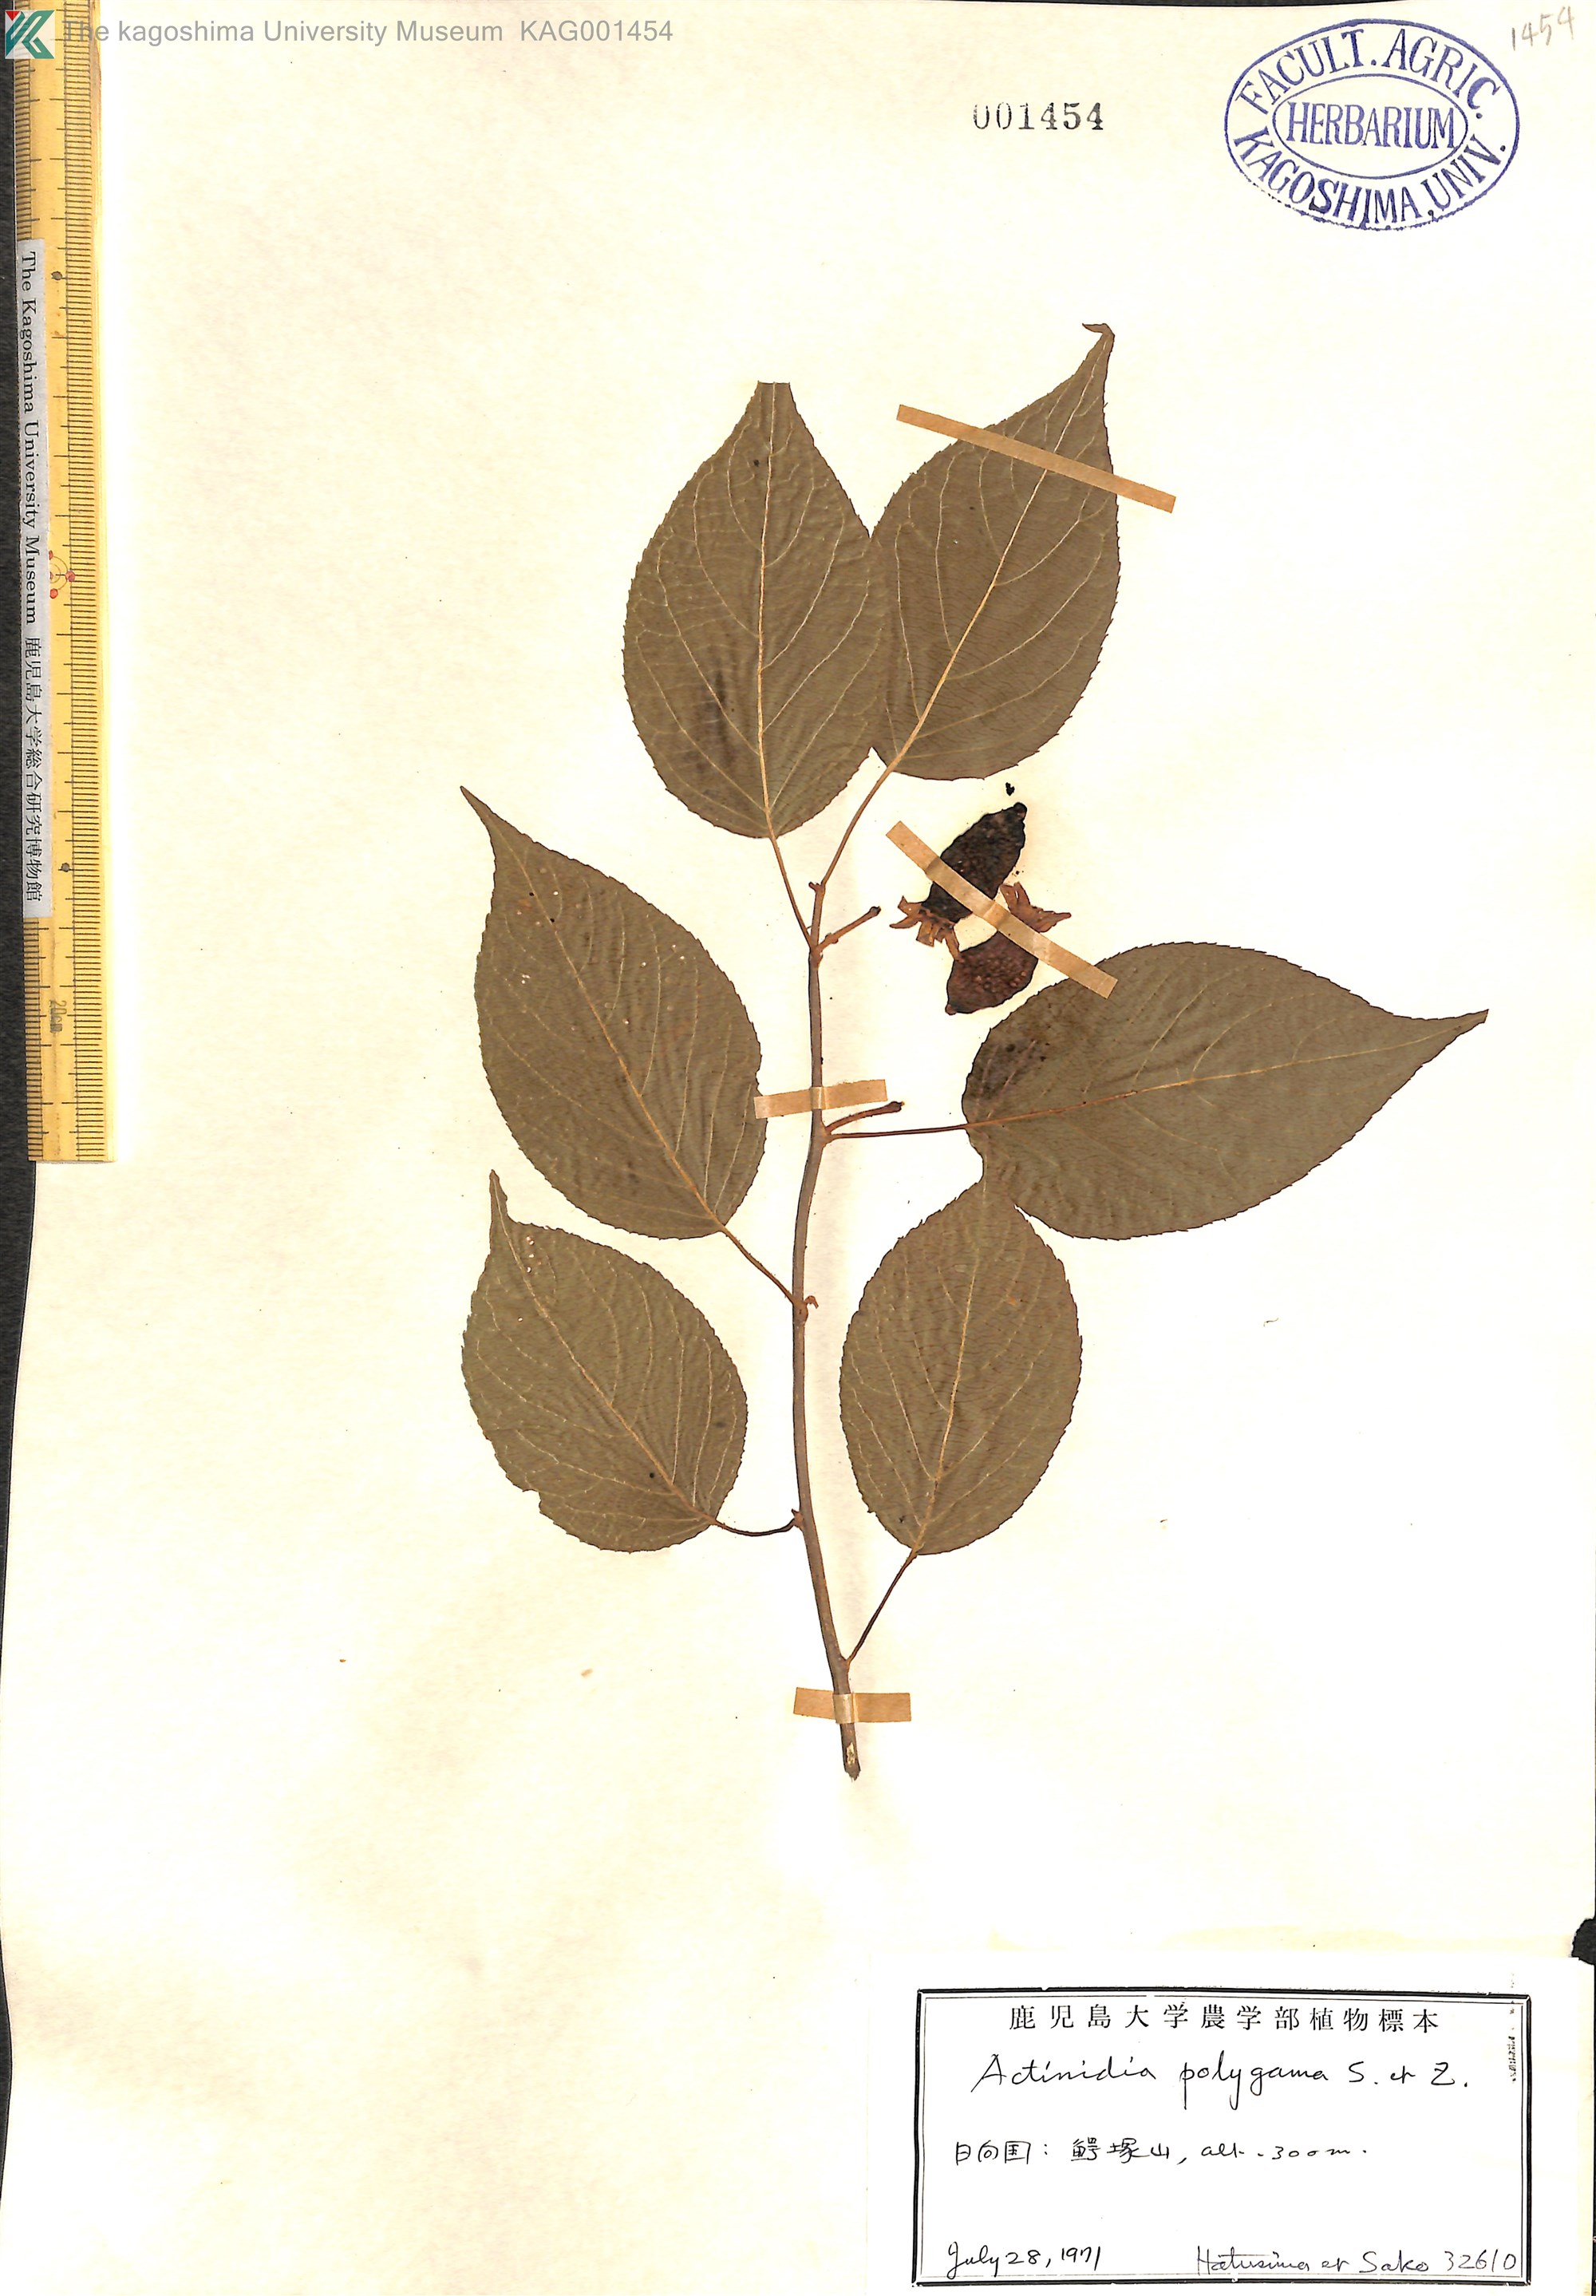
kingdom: Plantae
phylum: Tracheophyta
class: Magnoliopsida
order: Ericales
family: Actinidiaceae
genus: Actinidia
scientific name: Actinidia polygama
